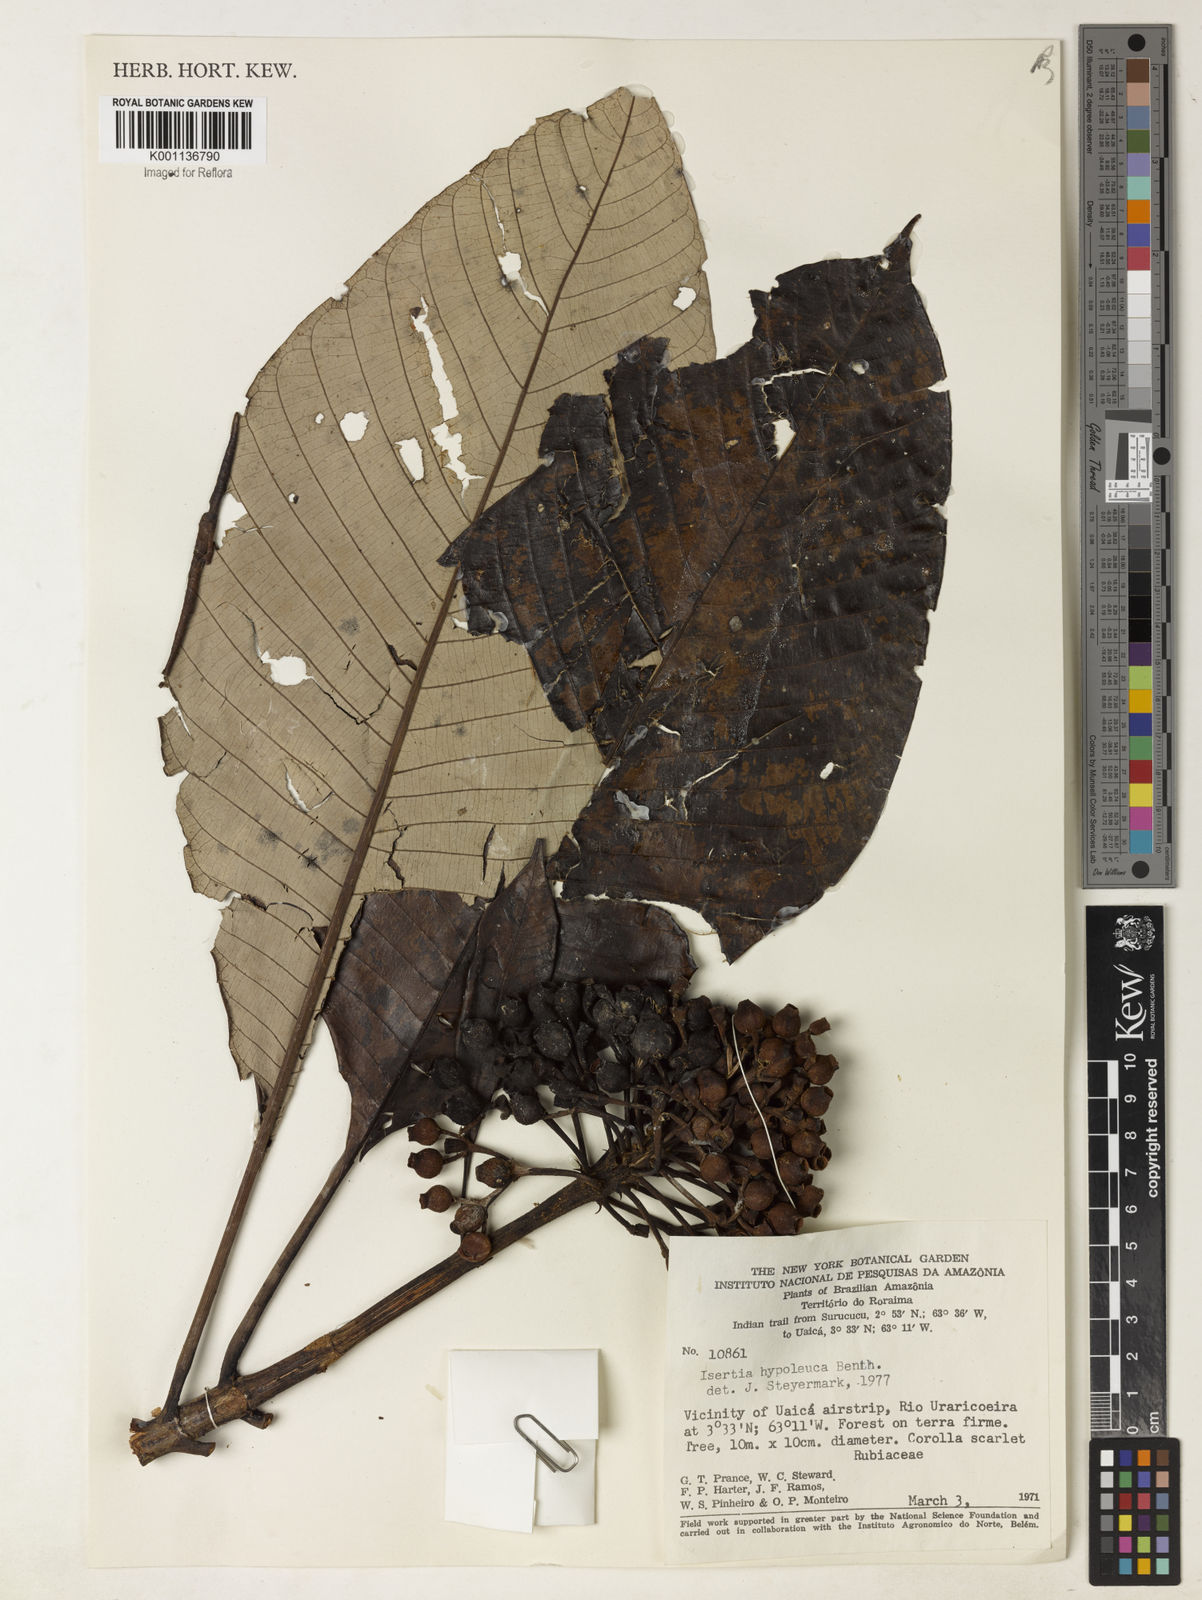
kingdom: Plantae
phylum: Tracheophyta
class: Magnoliopsida
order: Gentianales
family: Rubiaceae
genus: Isertia
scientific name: Isertia hypoleuca
